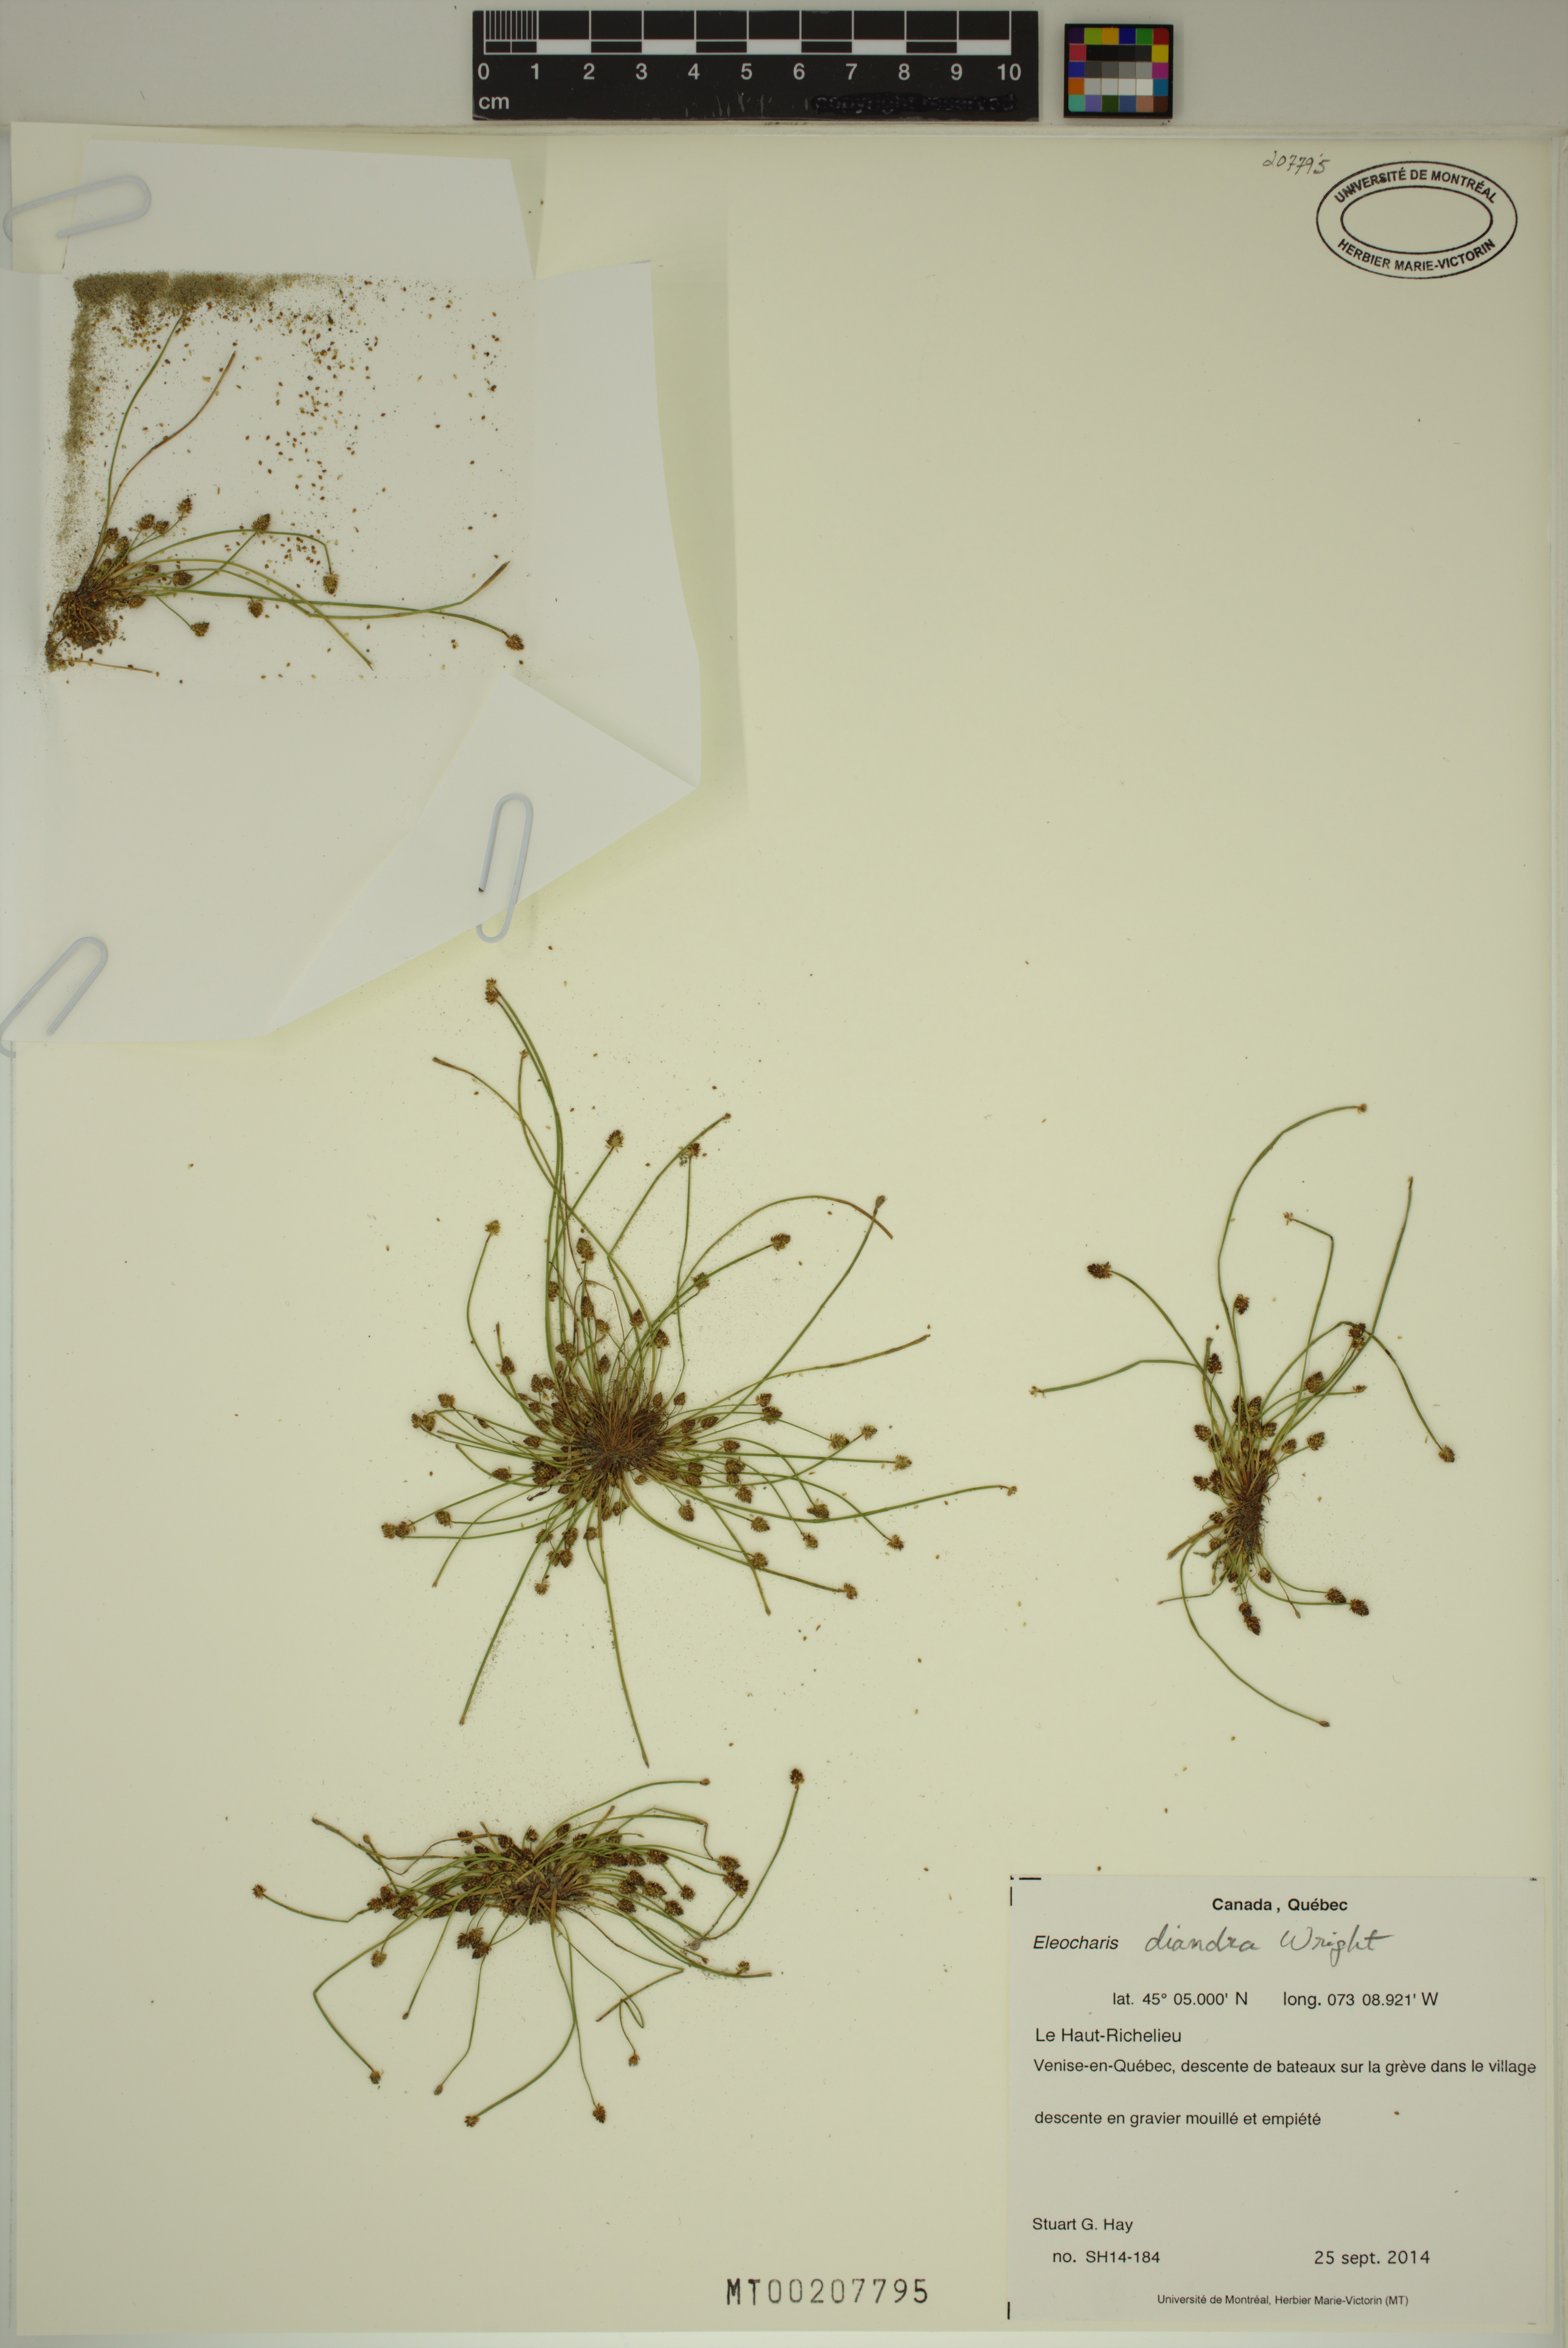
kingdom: Plantae
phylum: Tracheophyta
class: Liliopsida
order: Poales
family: Cyperaceae
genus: Eleocharis
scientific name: Eleocharis diandra
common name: Wright's spikerush
